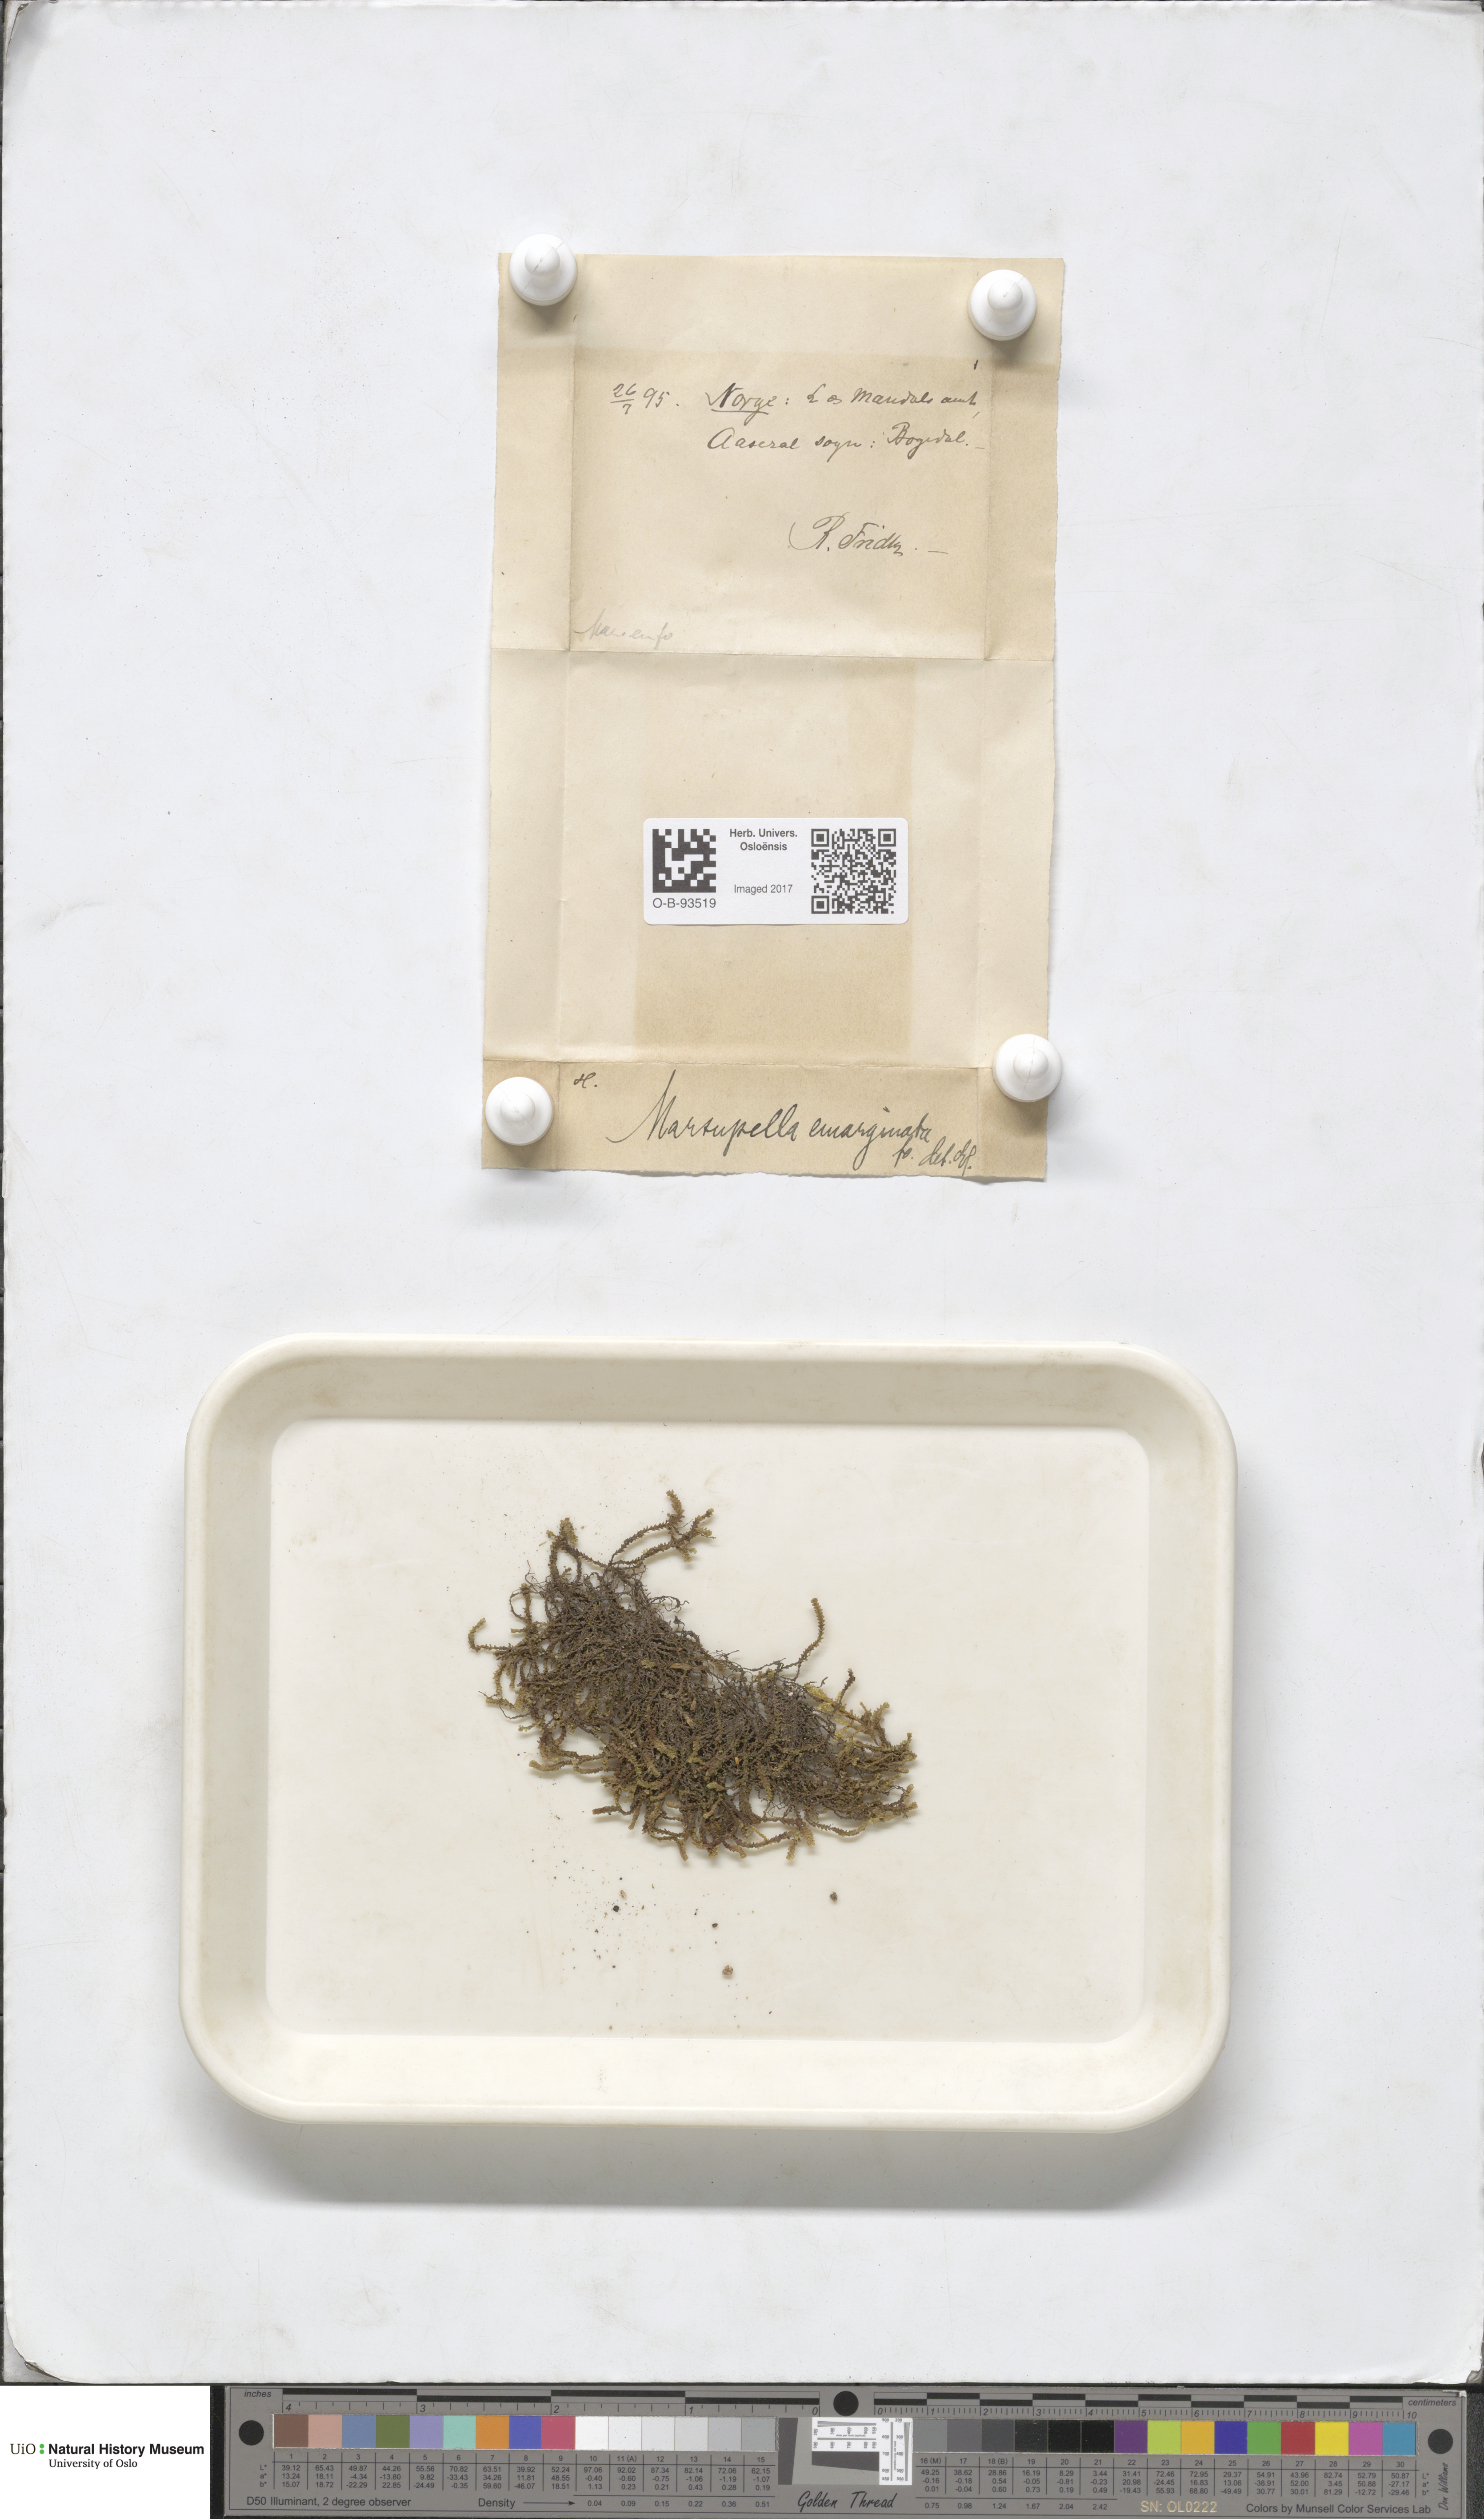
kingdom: Plantae
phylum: Marchantiophyta
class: Jungermanniopsida
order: Jungermanniales
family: Gymnomitriaceae
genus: Marsupella
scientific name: Marsupella emarginata
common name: Notched rustwort
